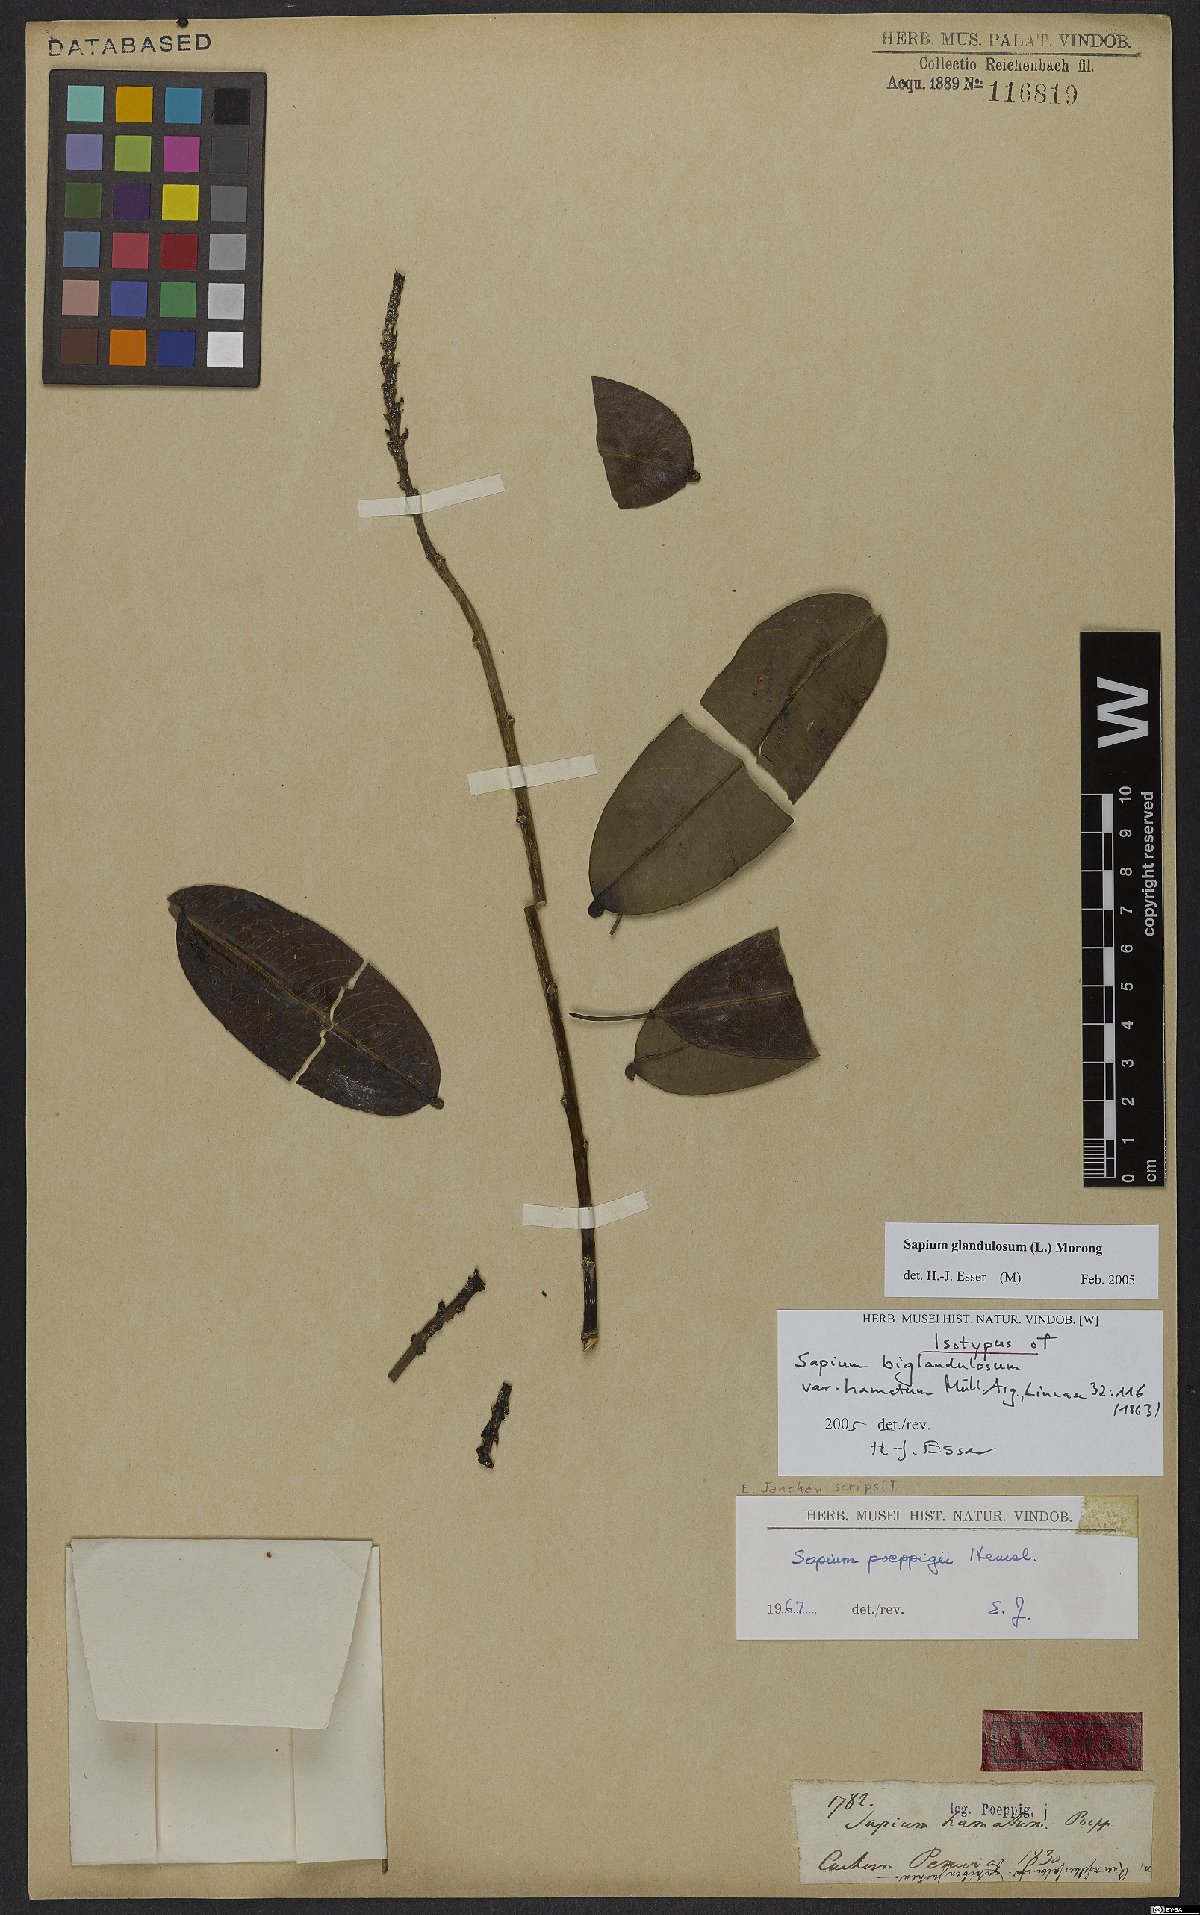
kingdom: Plantae
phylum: Tracheophyta
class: Magnoliopsida
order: Malpighiales
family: Euphorbiaceae
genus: Sapium
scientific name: Sapium glandulosum
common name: Milktree
